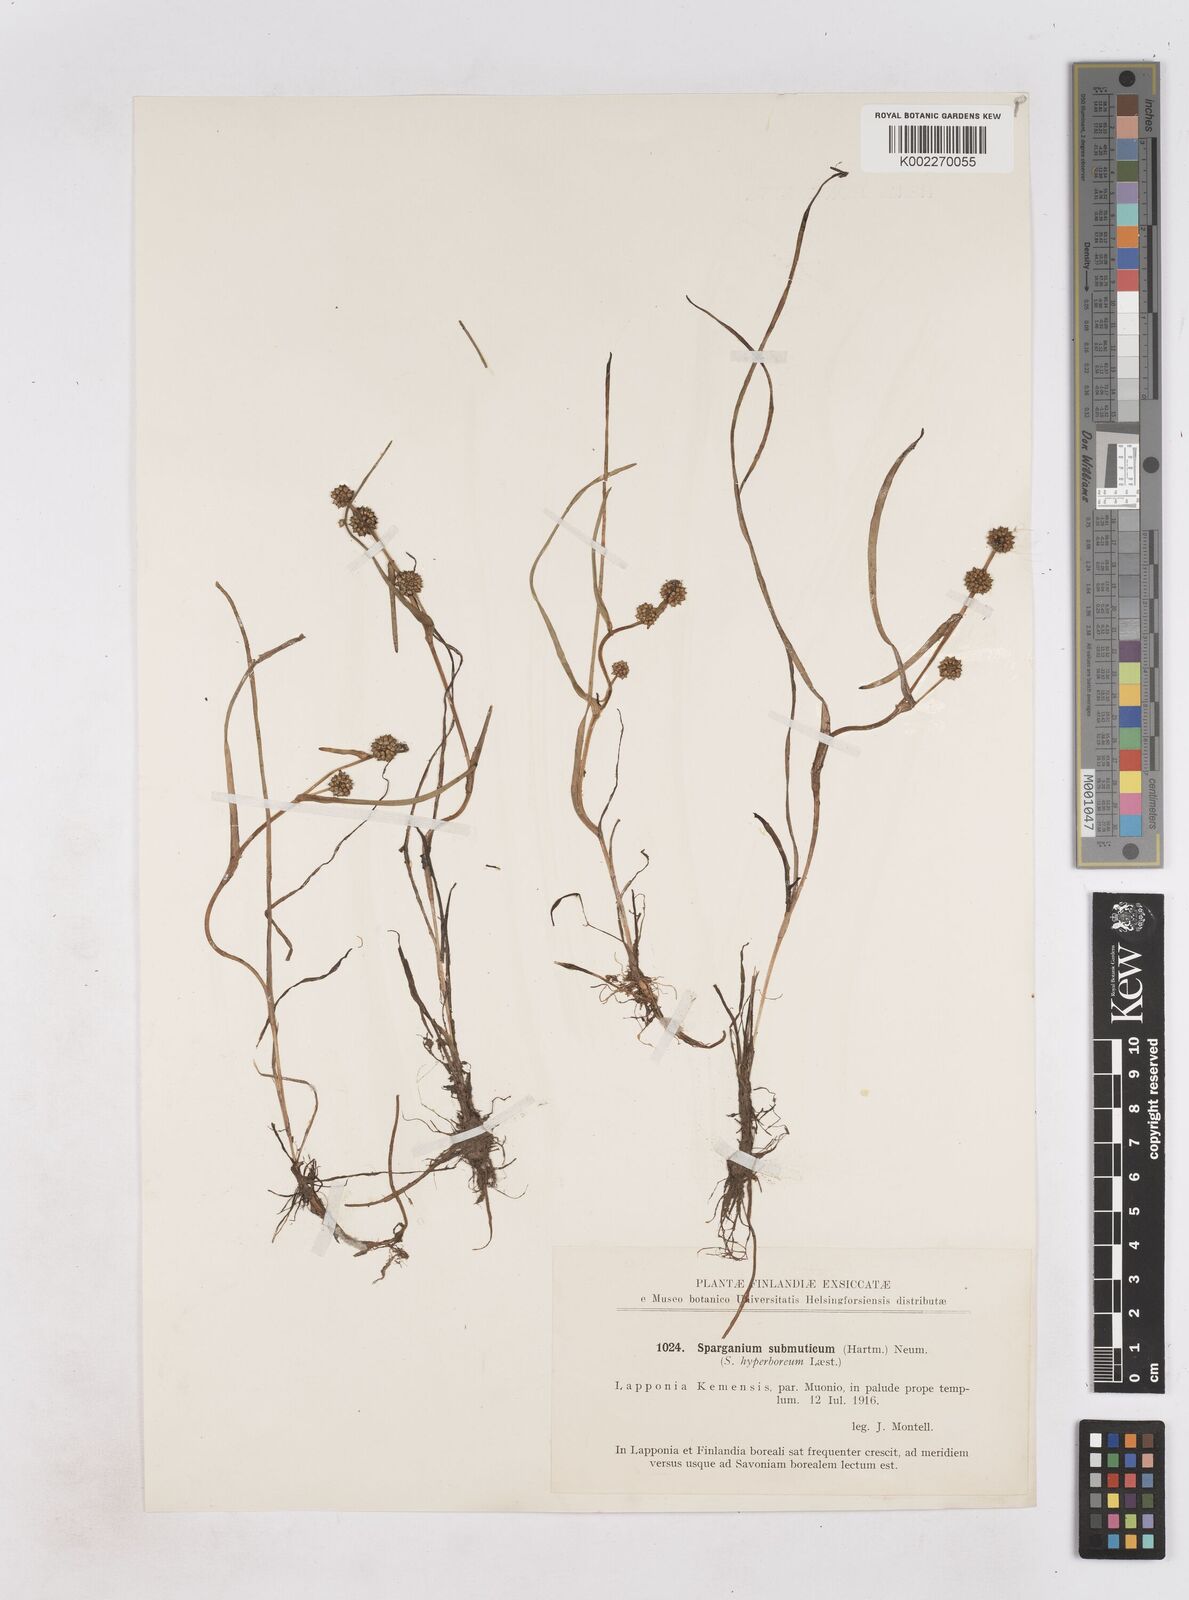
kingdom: Plantae
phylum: Tracheophyta
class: Liliopsida
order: Poales
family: Typhaceae
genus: Sparganium
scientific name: Sparganium hyperboreum
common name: Arctic burreed
